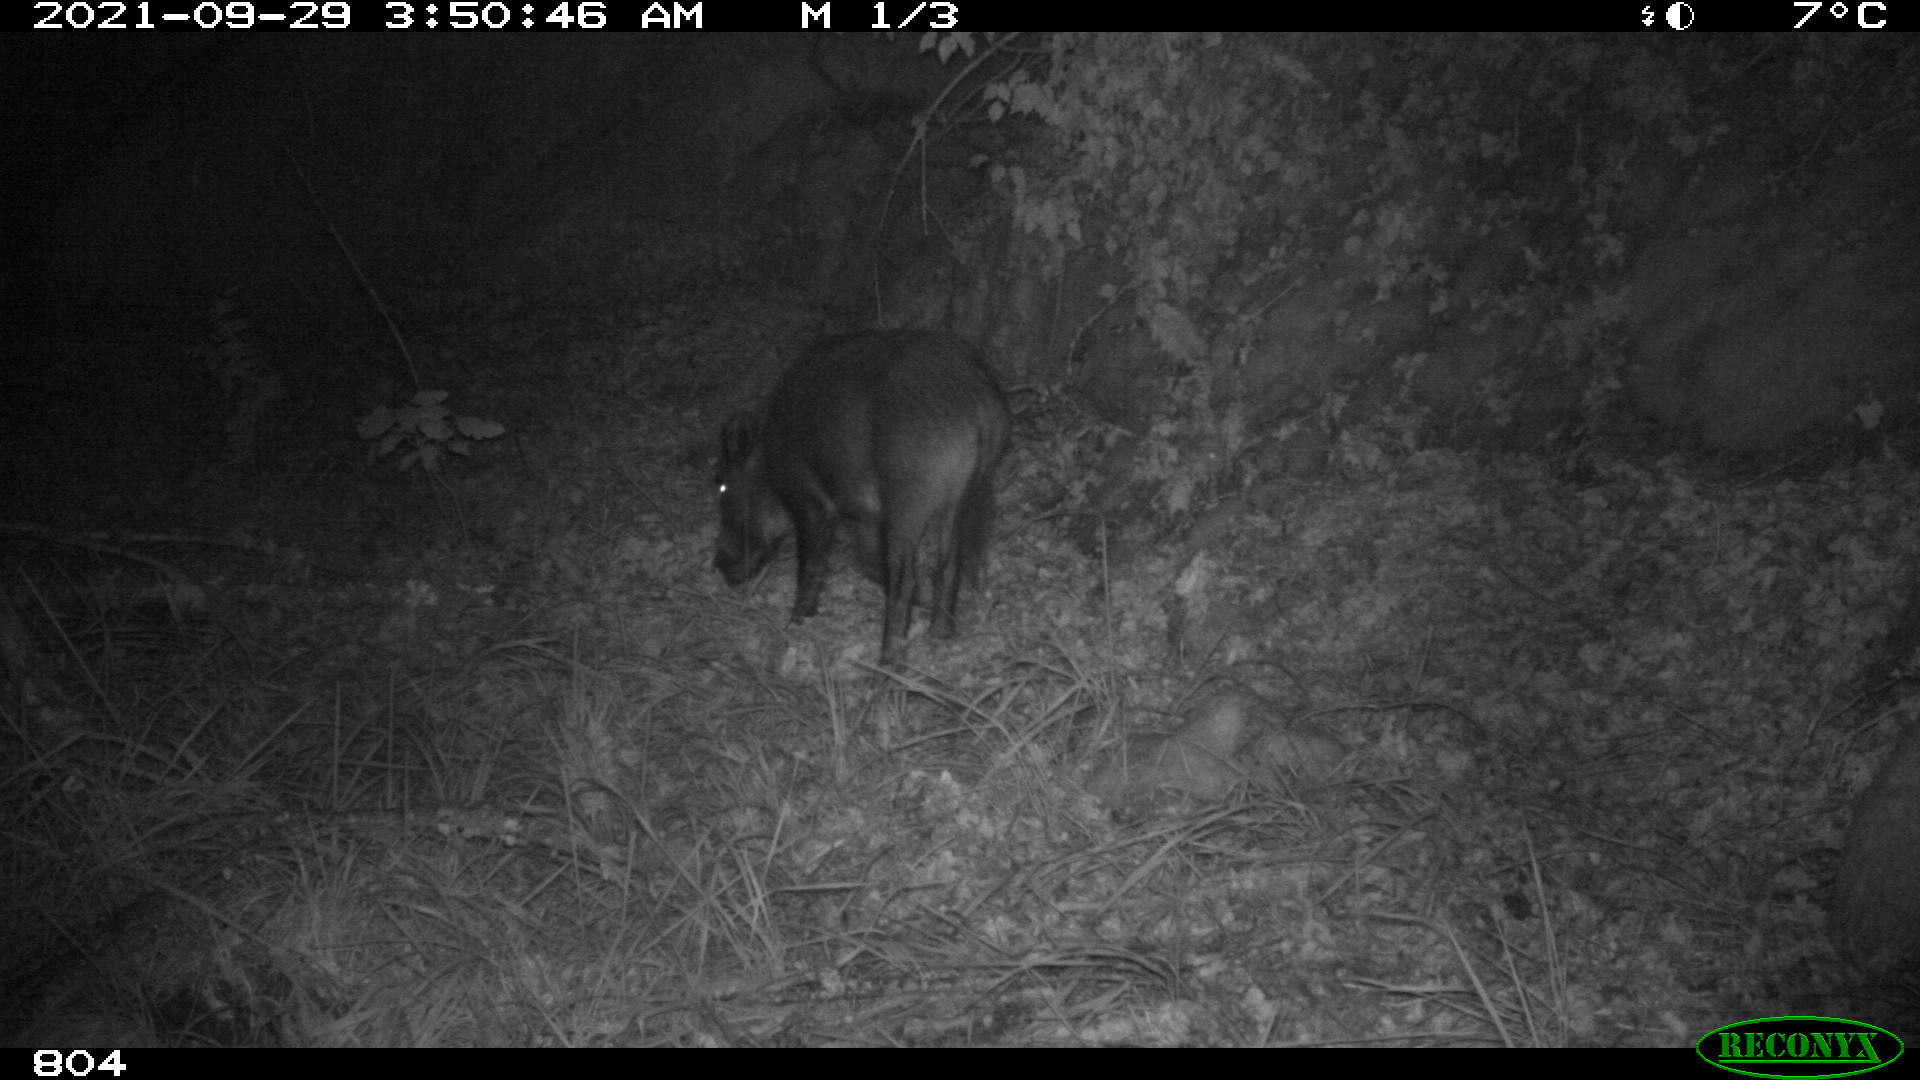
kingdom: Animalia
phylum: Chordata
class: Mammalia
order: Artiodactyla
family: Suidae
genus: Sus
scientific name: Sus scrofa
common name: Wild boar
